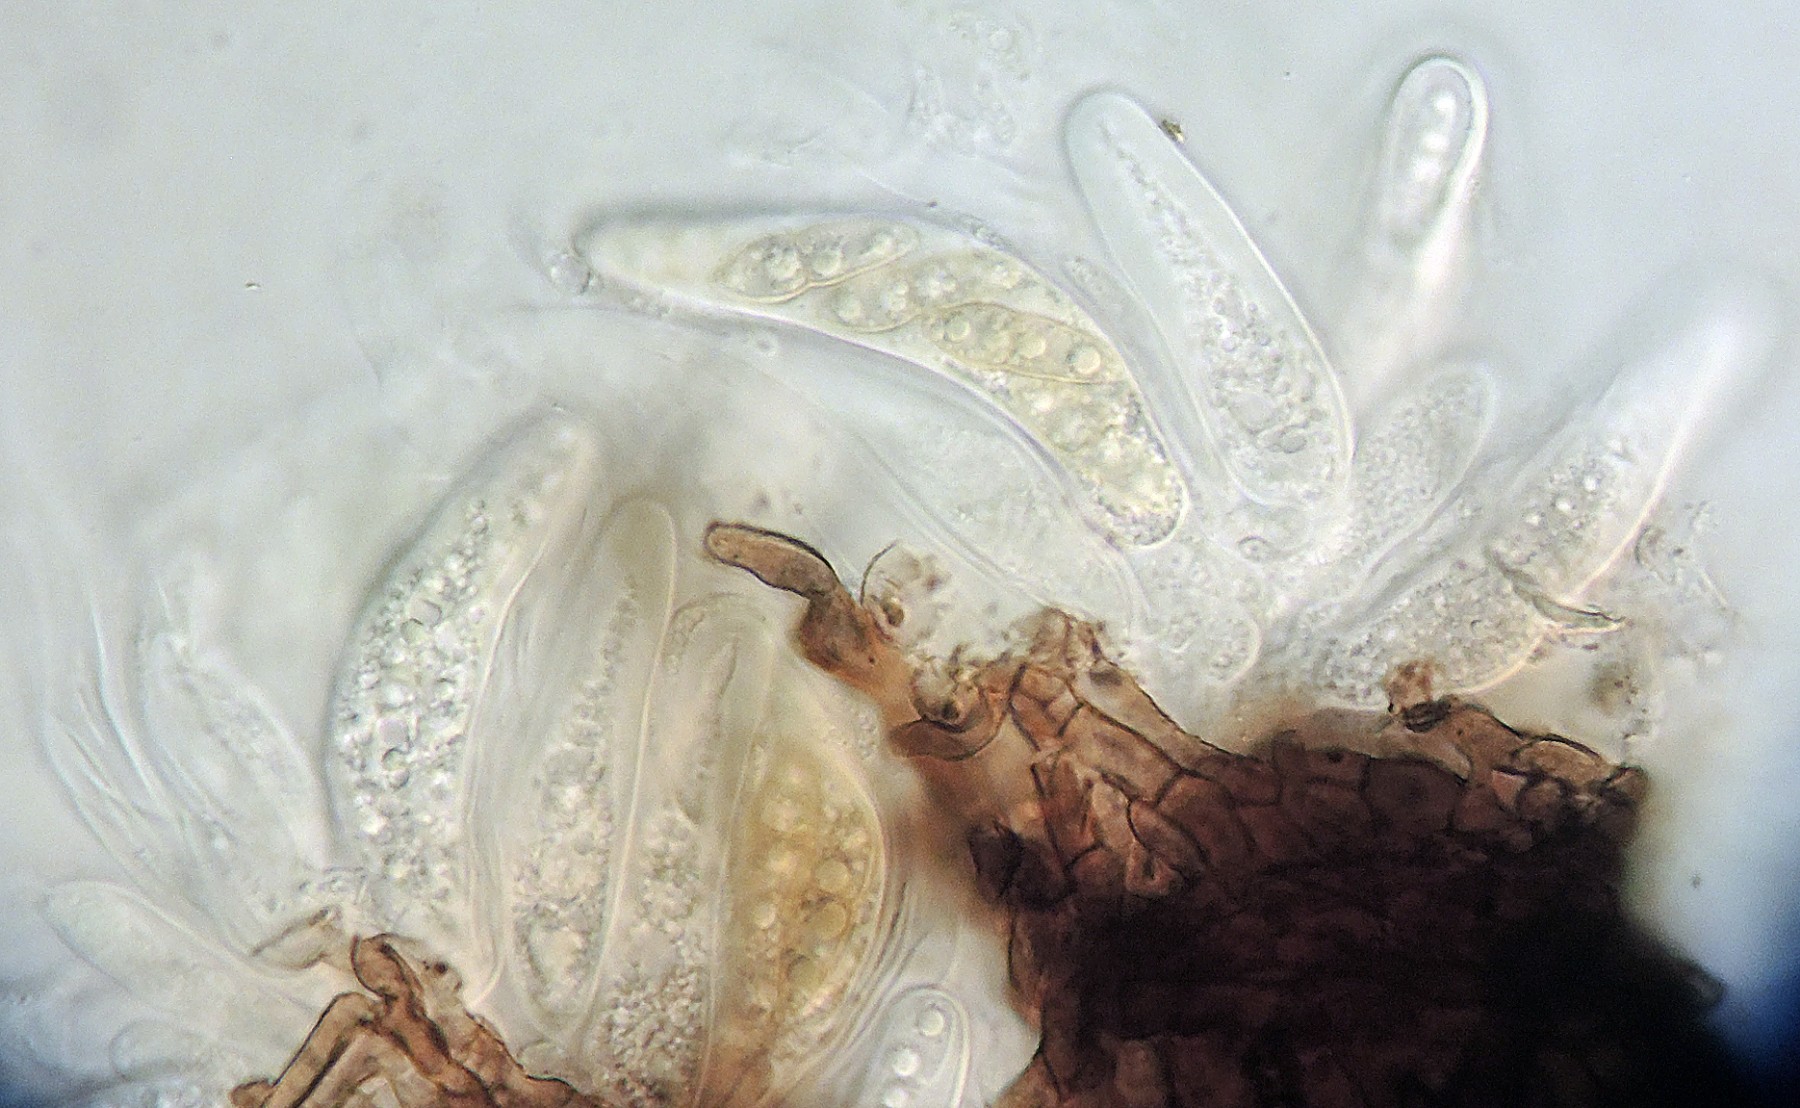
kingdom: Fungi
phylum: Ascomycota
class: Dothideomycetes
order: Venturiales
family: Venturiaceae
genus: Gibbera
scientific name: Gibbera andromedae
